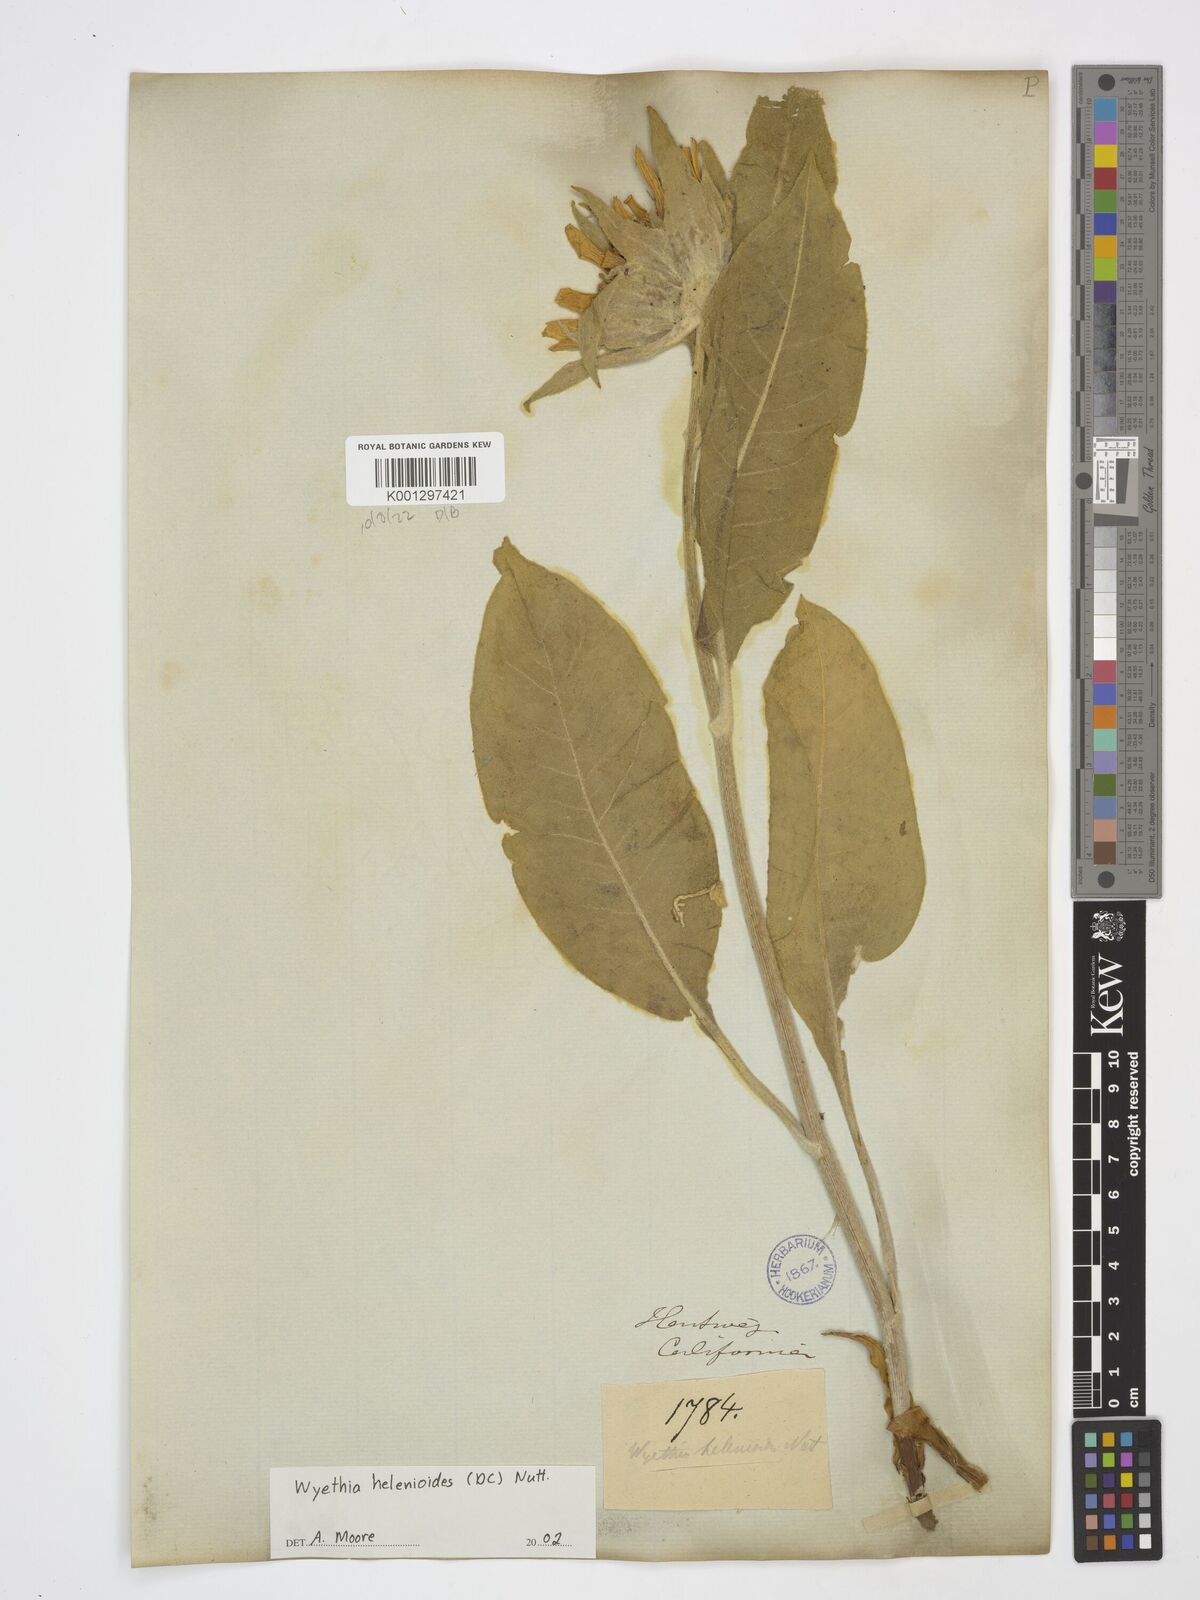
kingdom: Plantae
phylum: Tracheophyta
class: Magnoliopsida
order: Asterales
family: Asteraceae
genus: Wyethia
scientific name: Wyethia helenioides
